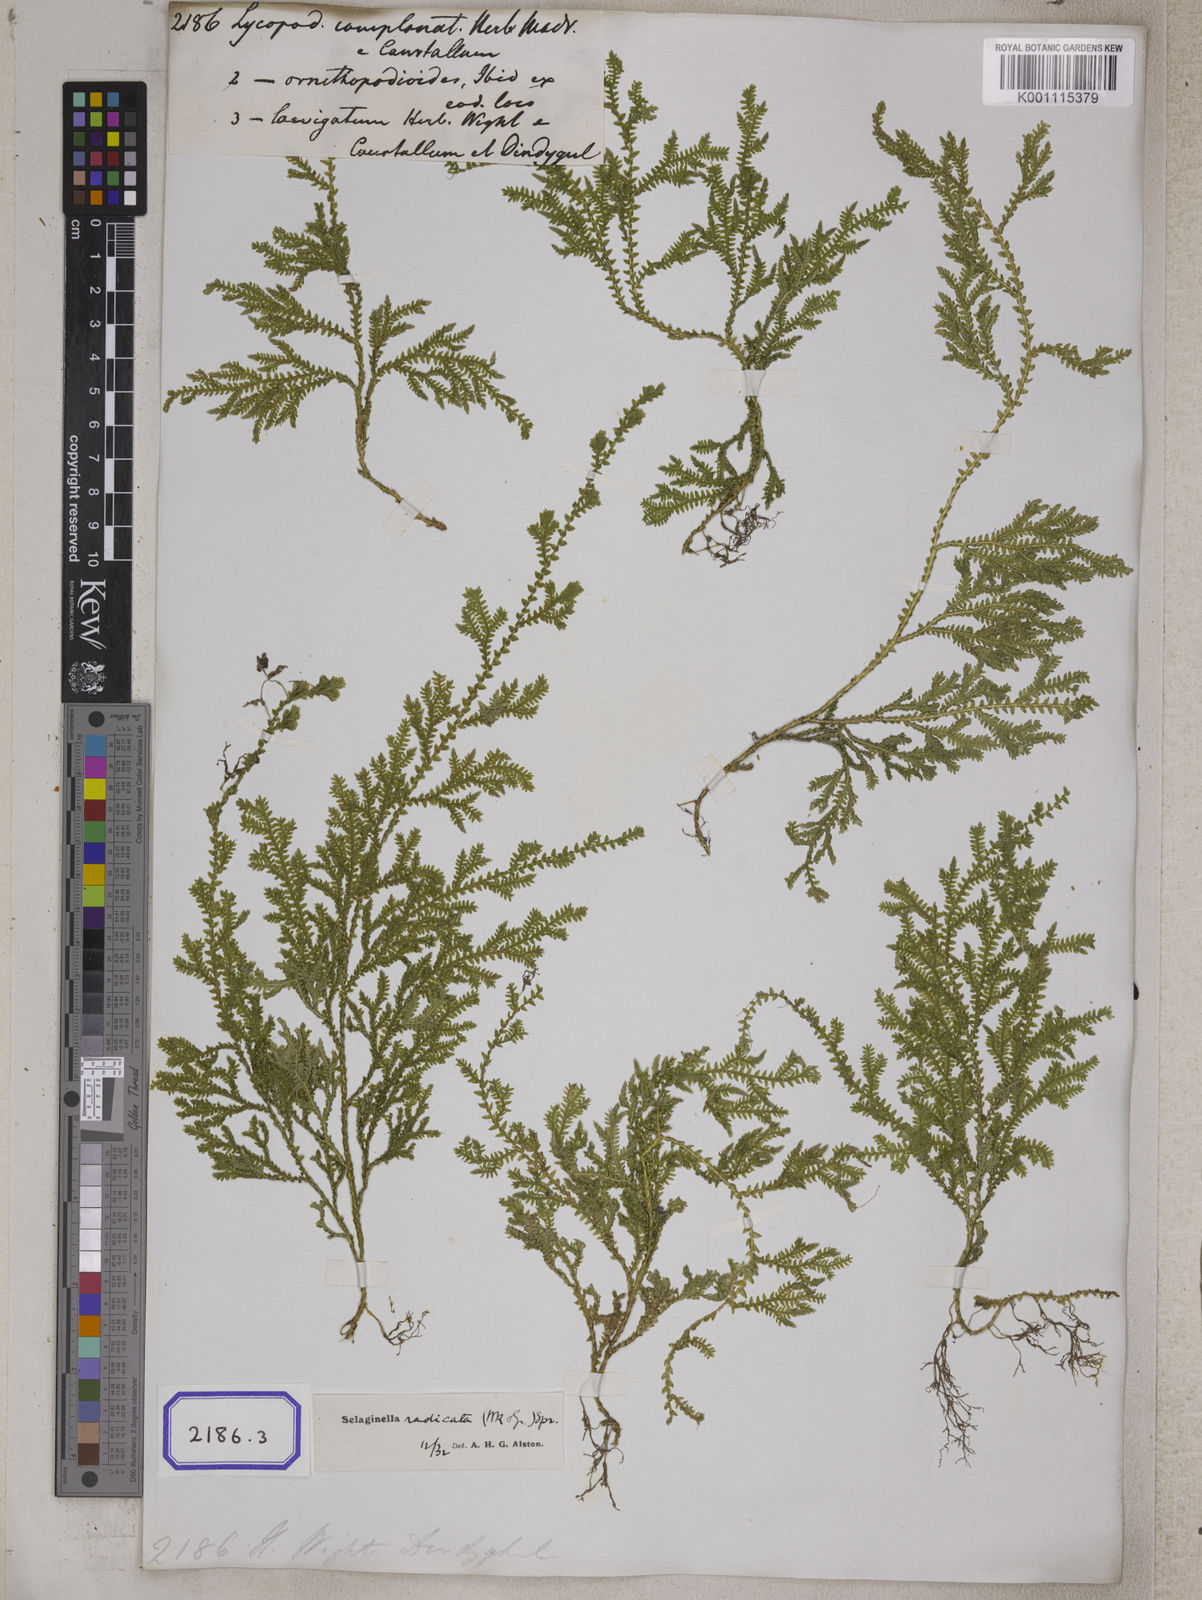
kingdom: Plantae
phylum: Tracheophyta
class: Lycopodiopsida
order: Lycopodiales
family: Lycopodiaceae
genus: Diphasiastrum
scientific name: Diphasiastrum complanatum
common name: Northern running-pine
